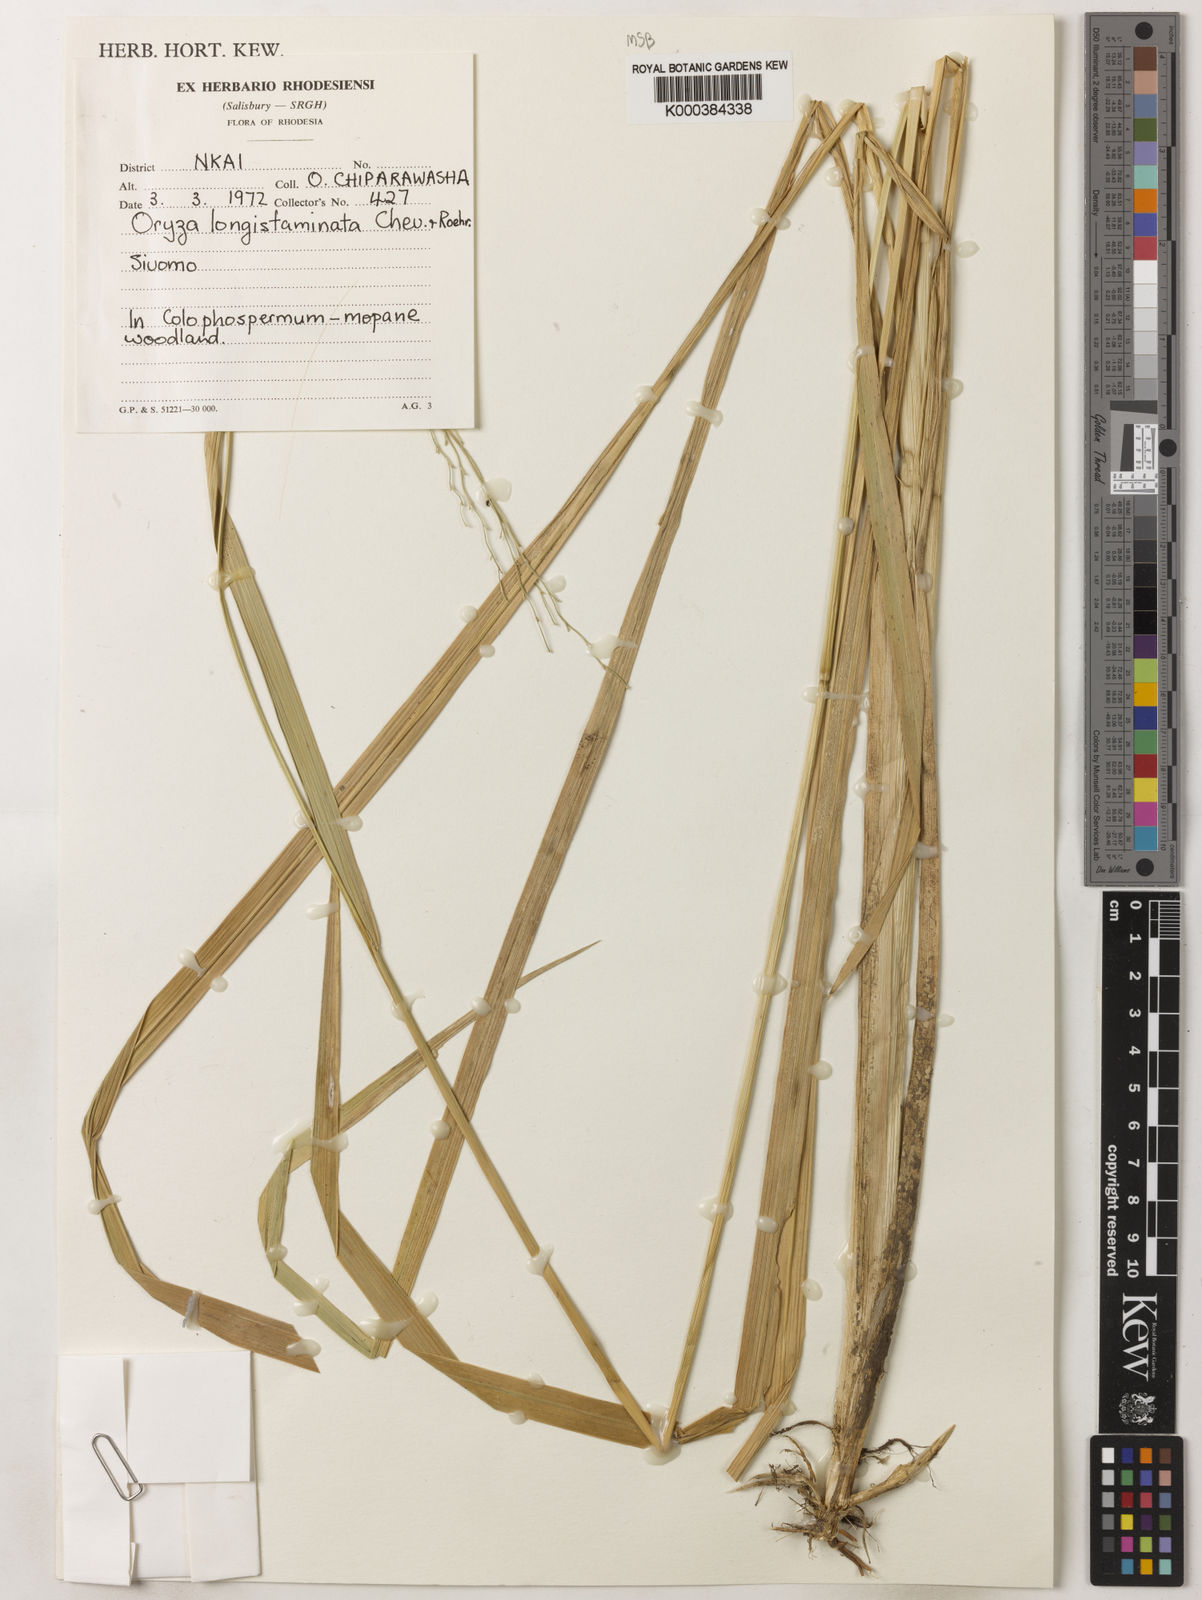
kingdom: Plantae
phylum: Tracheophyta
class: Liliopsida
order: Poales
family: Poaceae
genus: Oryza
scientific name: Oryza longistaminata
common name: Red rice
